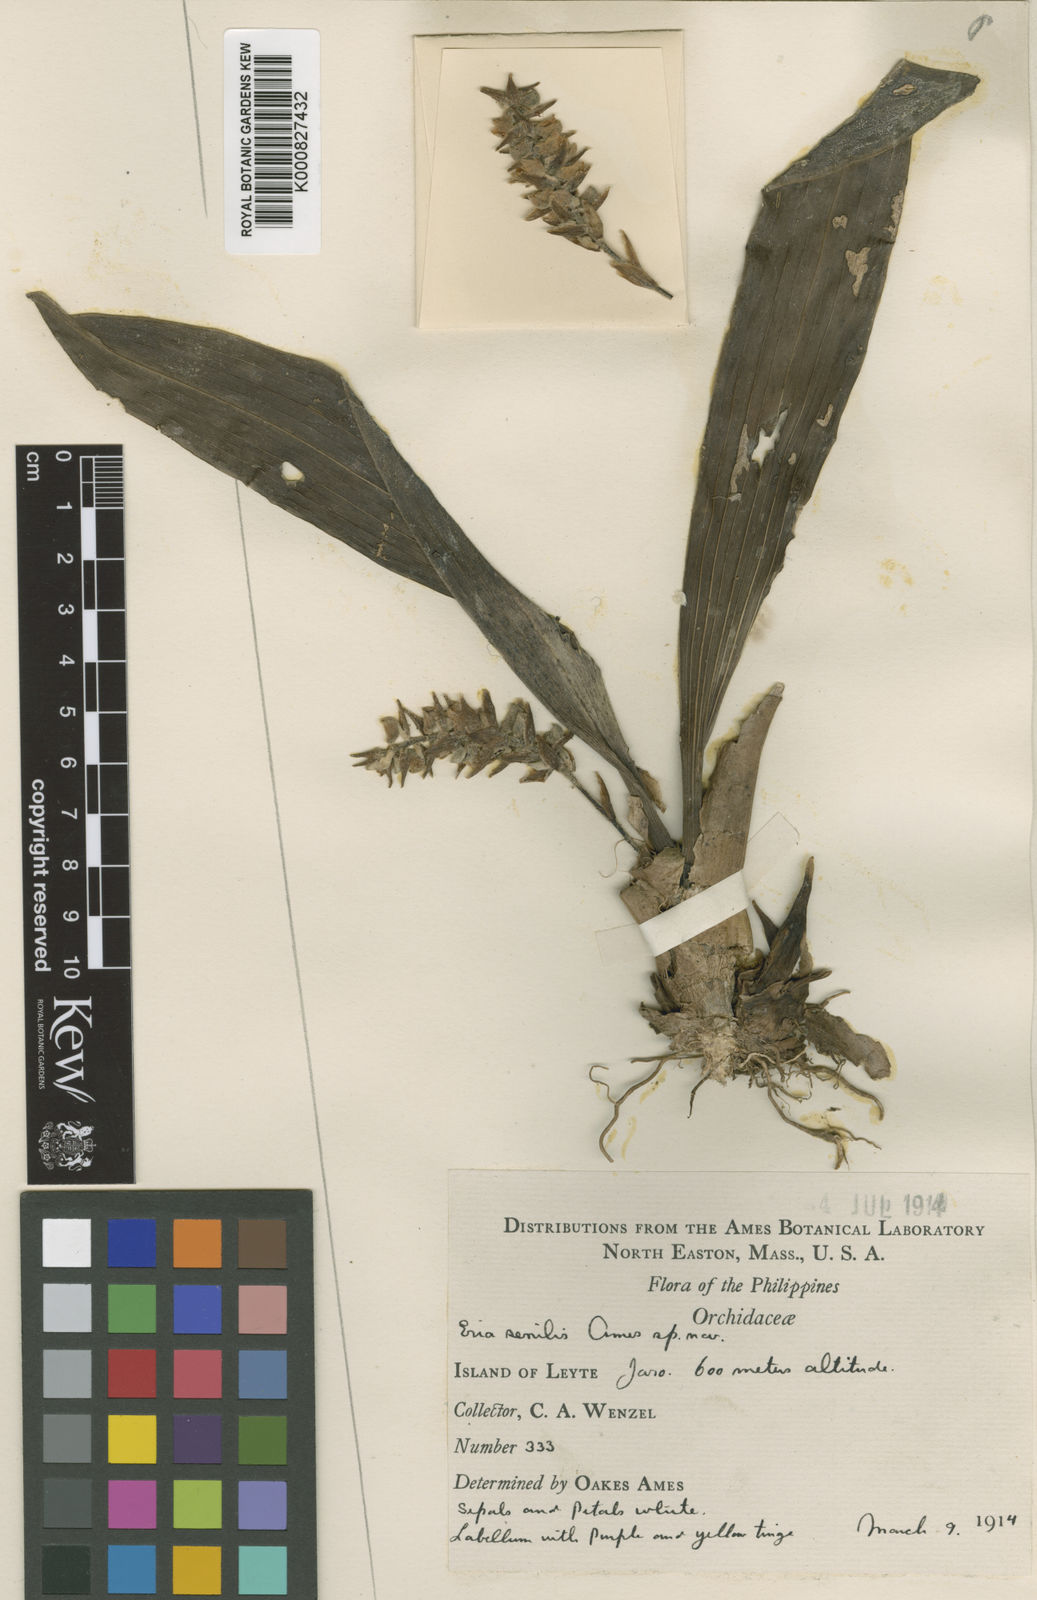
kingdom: Plantae
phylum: Tracheophyta
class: Liliopsida
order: Asparagales
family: Orchidaceae
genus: Bryobium
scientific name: Bryobium senile
